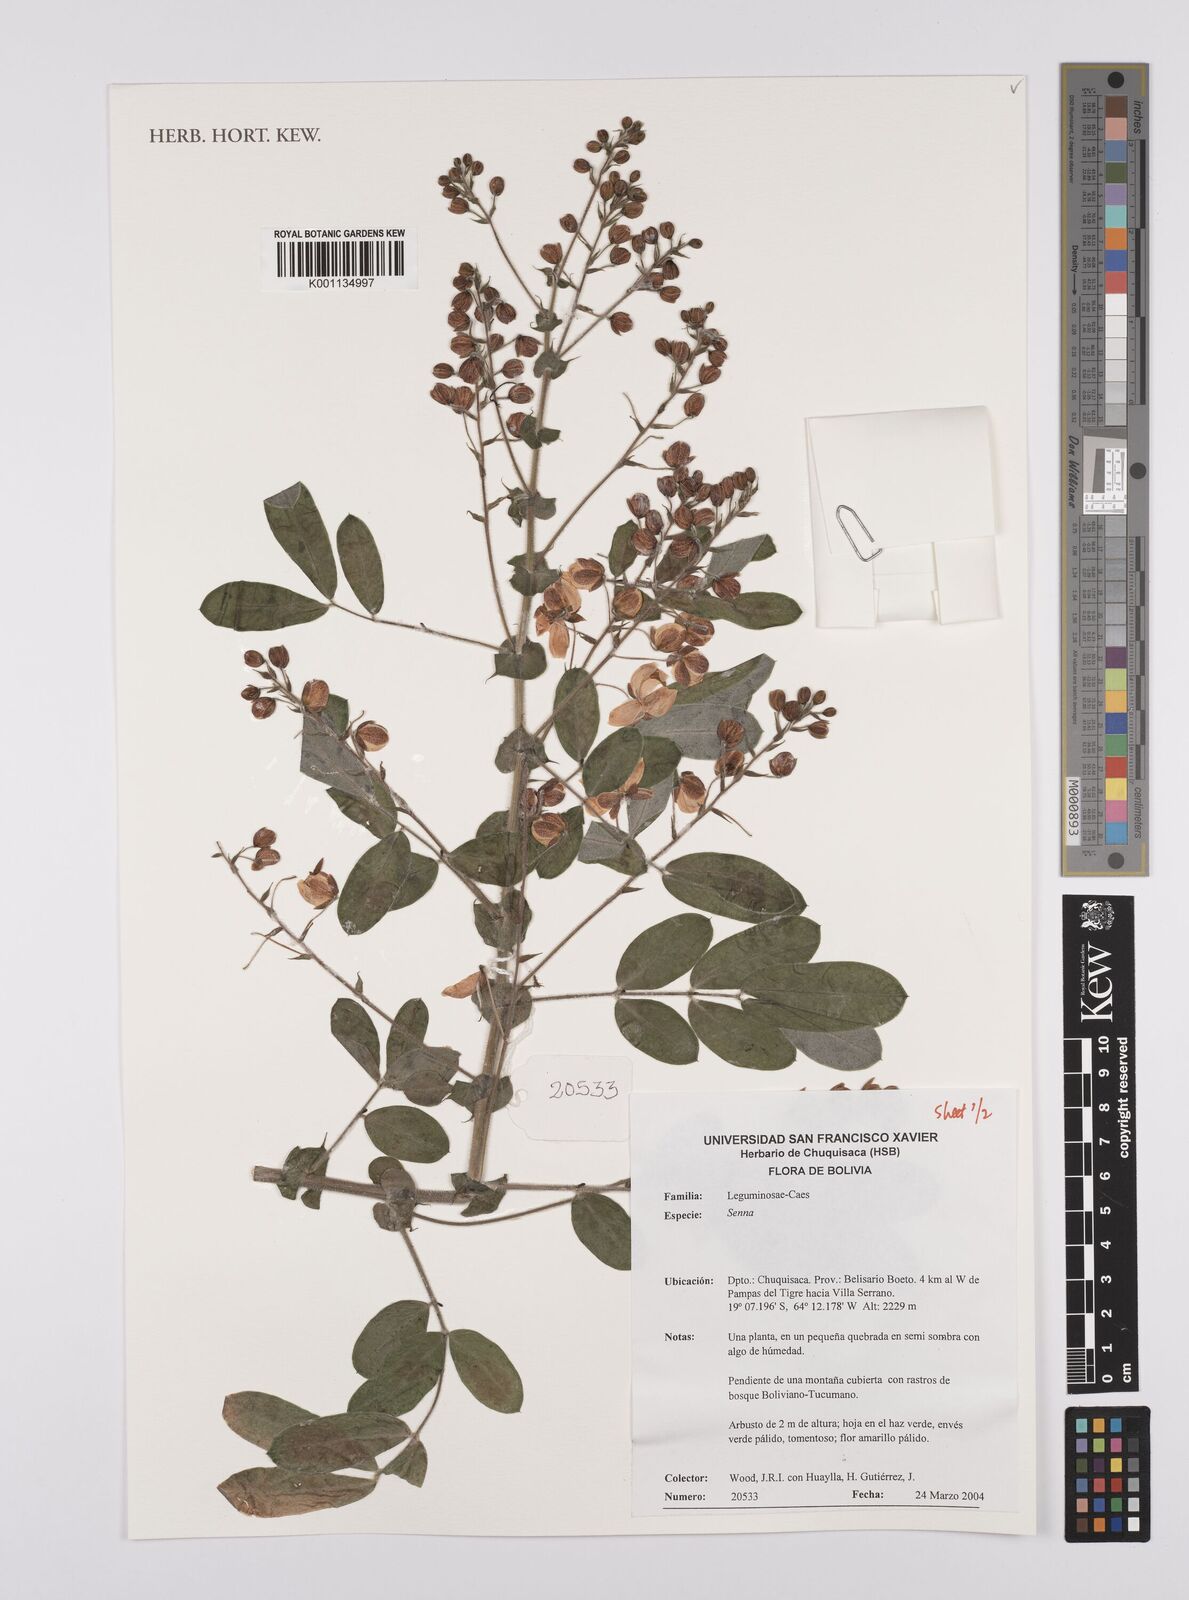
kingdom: Plantae
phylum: Tracheophyta
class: Magnoliopsida
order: Fabales
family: Fabaceae
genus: Senna
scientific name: Senna
